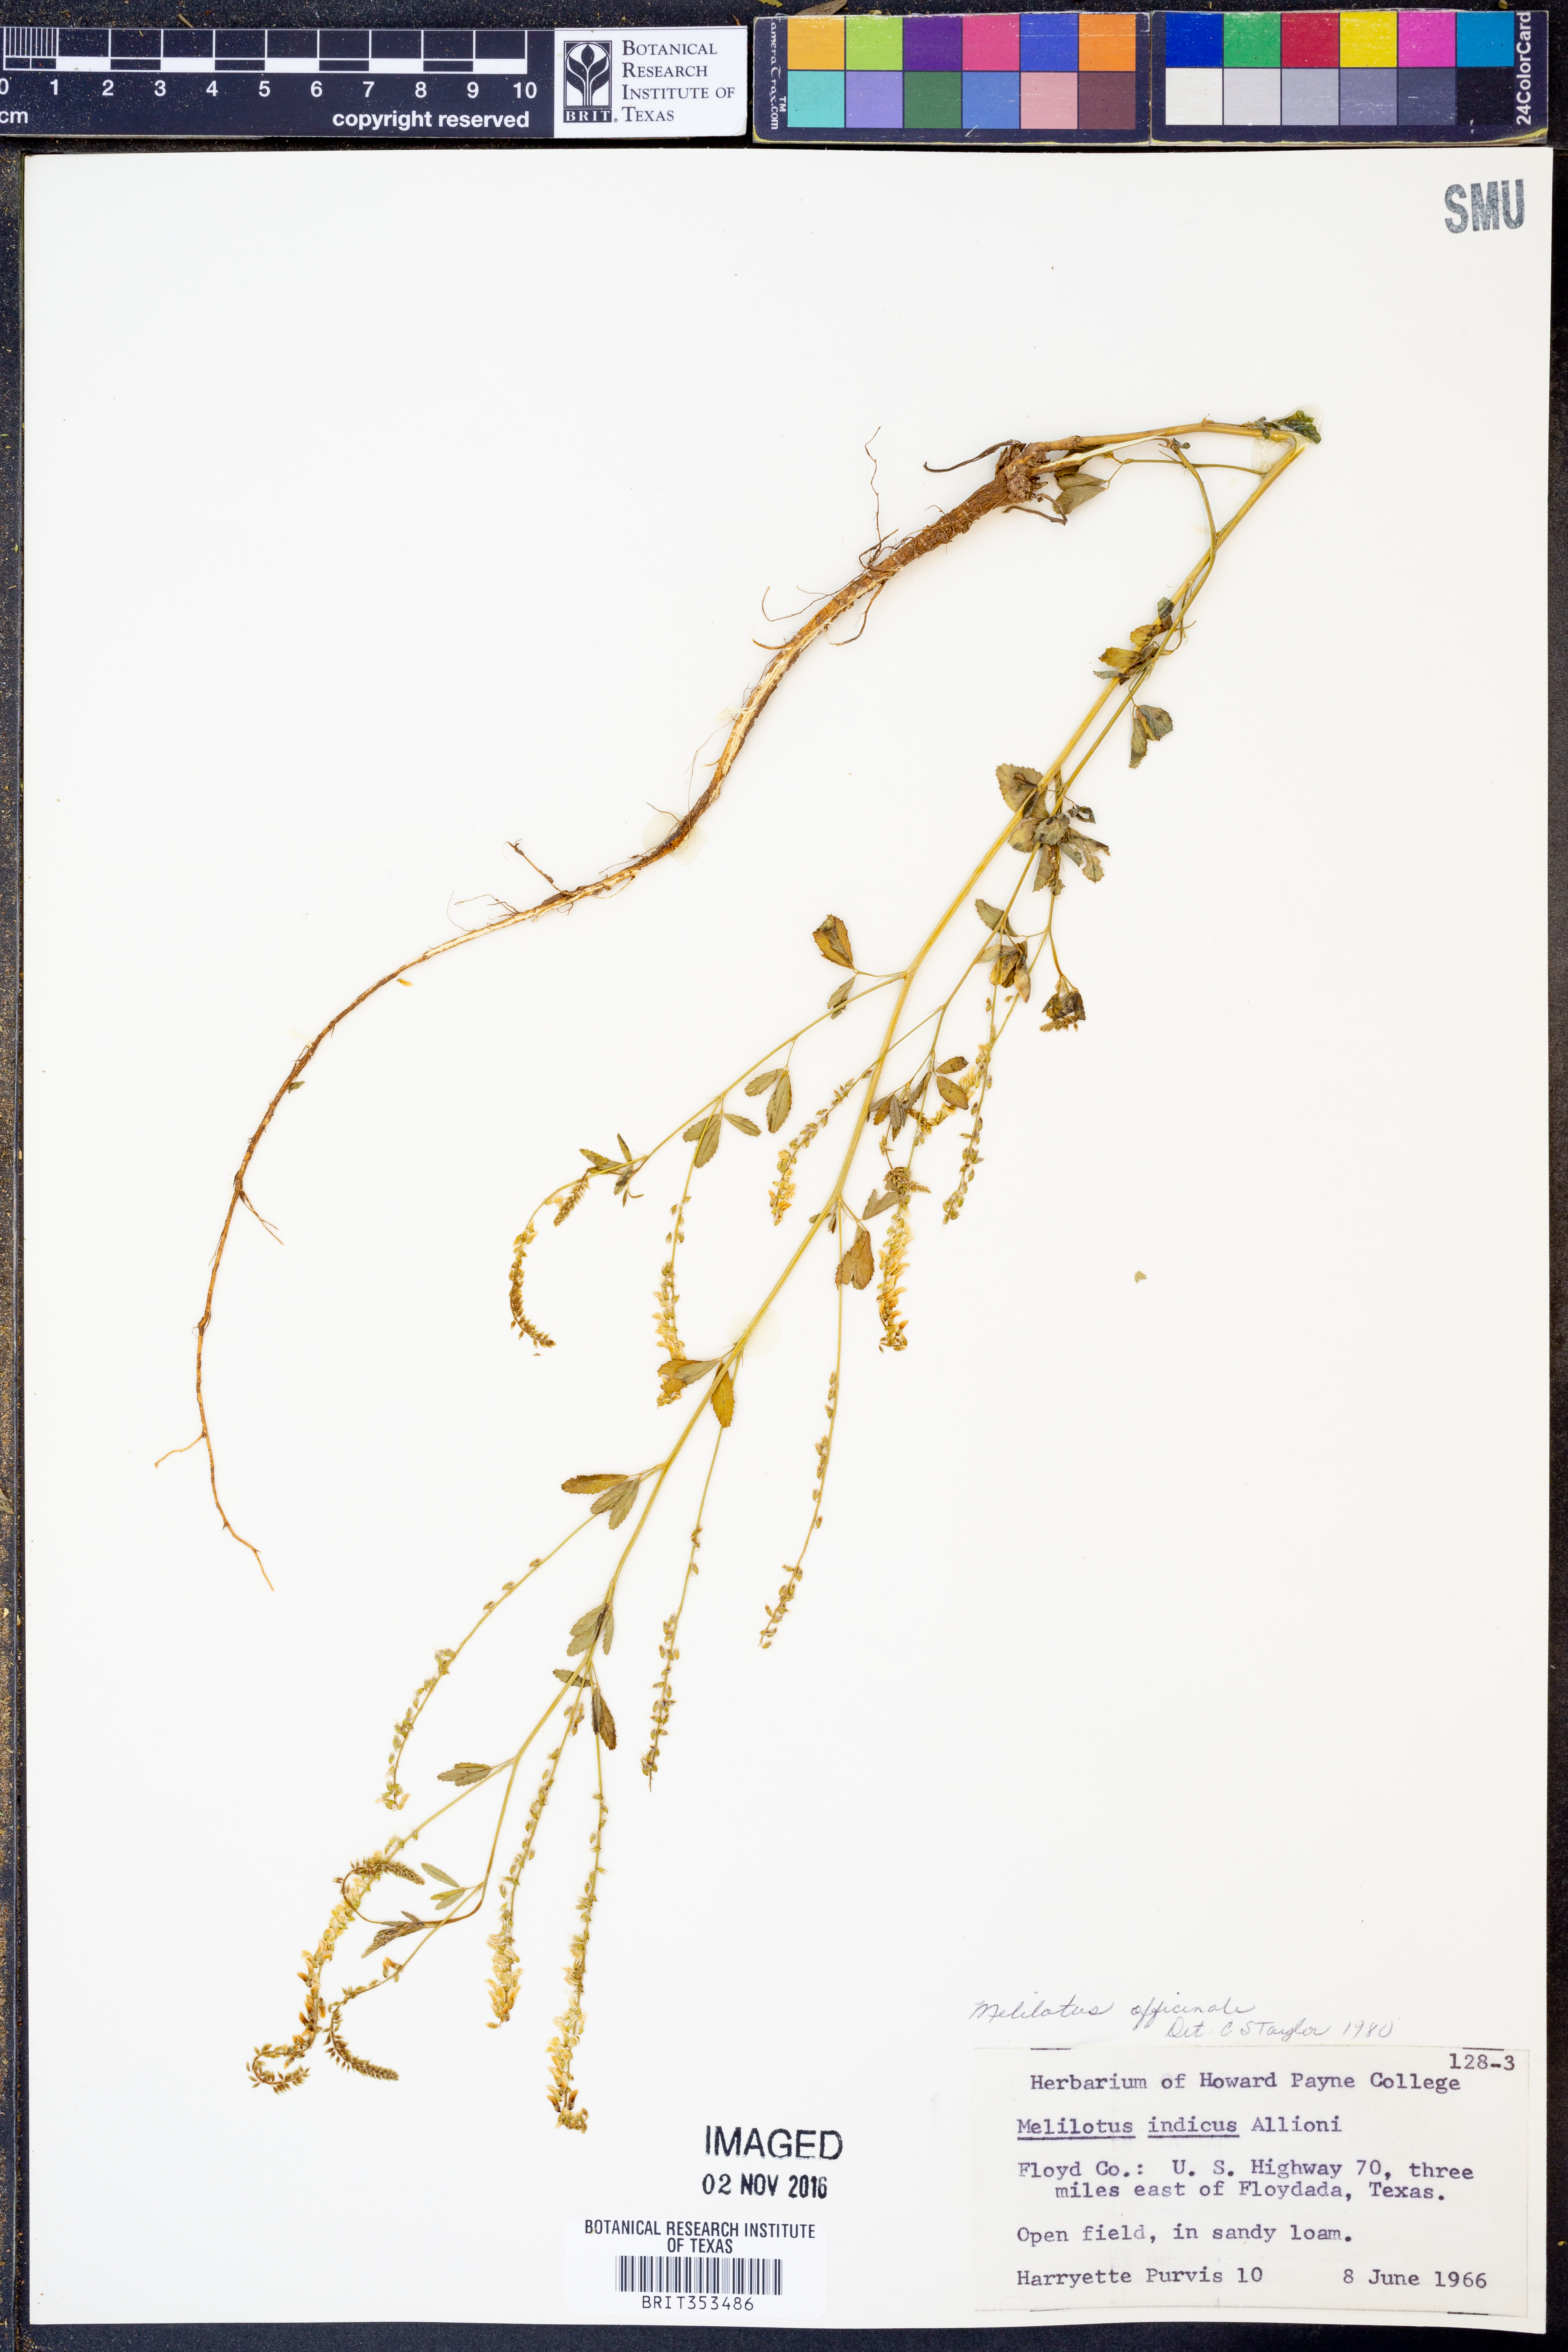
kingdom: Plantae
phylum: Tracheophyta
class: Magnoliopsida
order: Fabales
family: Fabaceae
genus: Melilotus
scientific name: Melilotus officinalis
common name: Sweetclover
